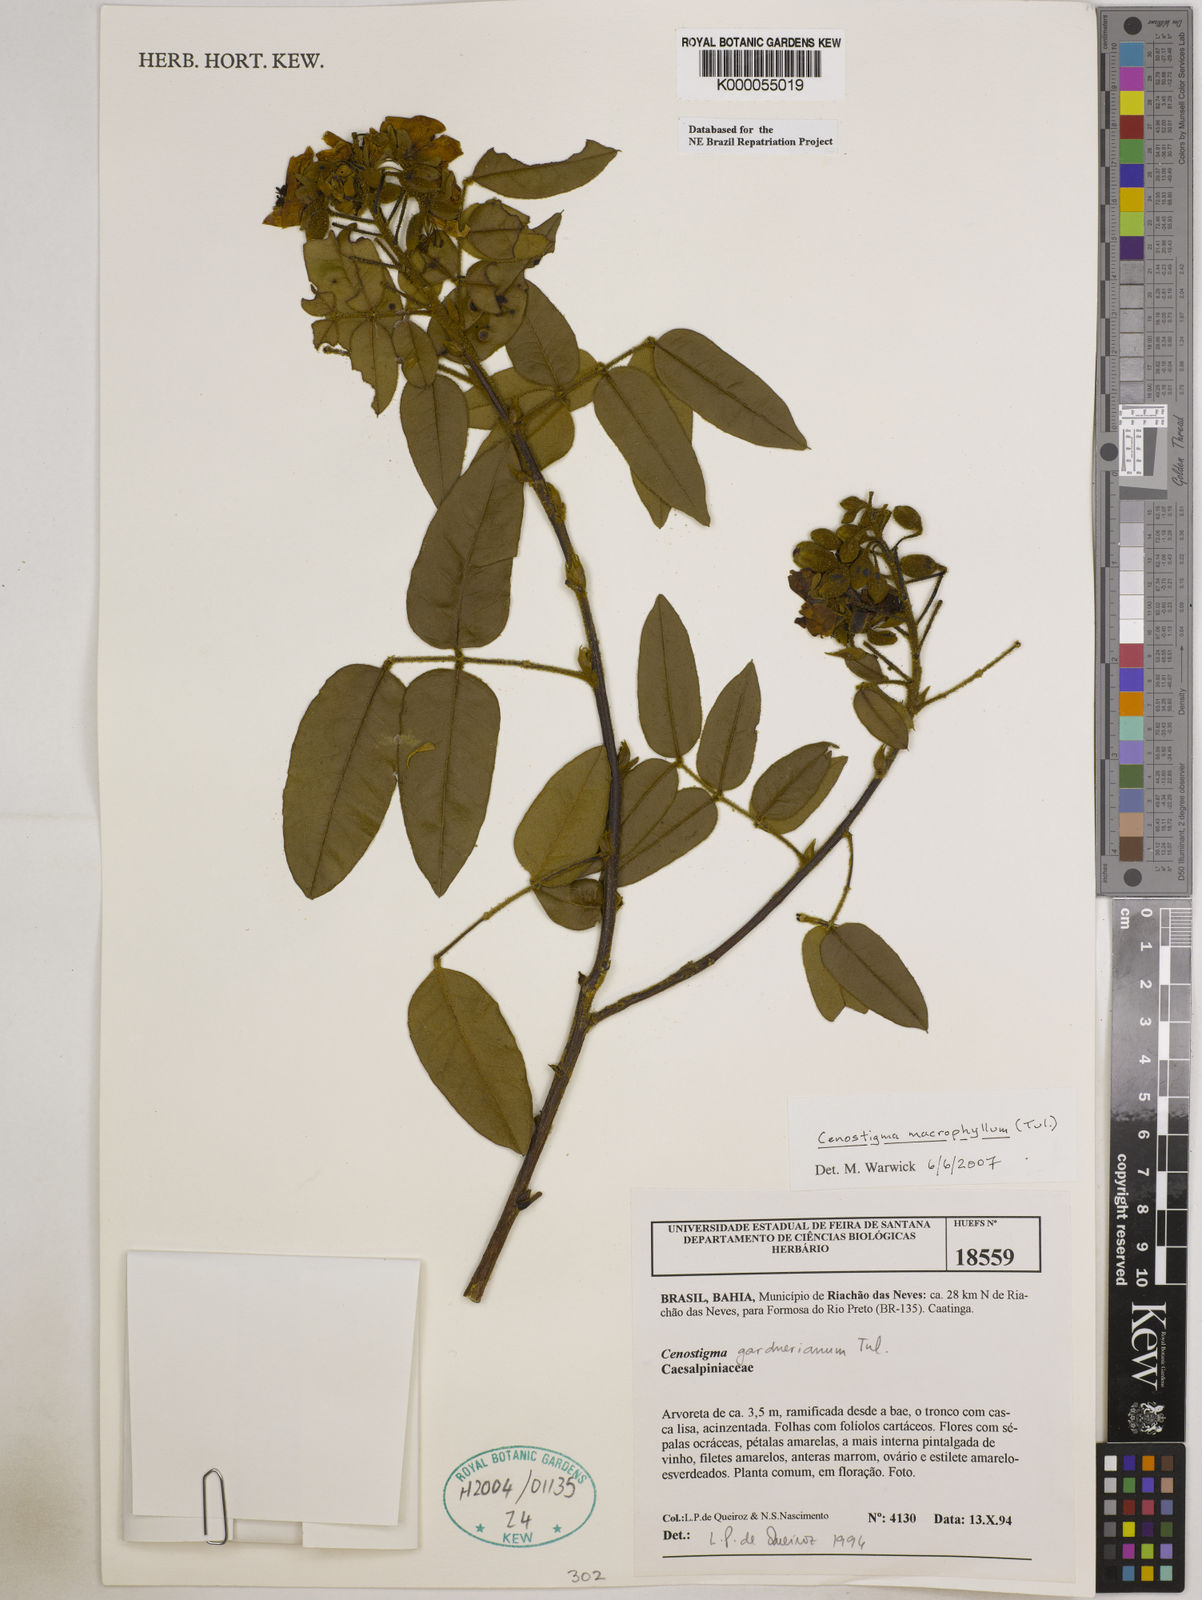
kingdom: Plantae
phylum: Tracheophyta
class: Magnoliopsida
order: Fabales
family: Fabaceae
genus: Cenostigma
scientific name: Cenostigma macrophyllum
